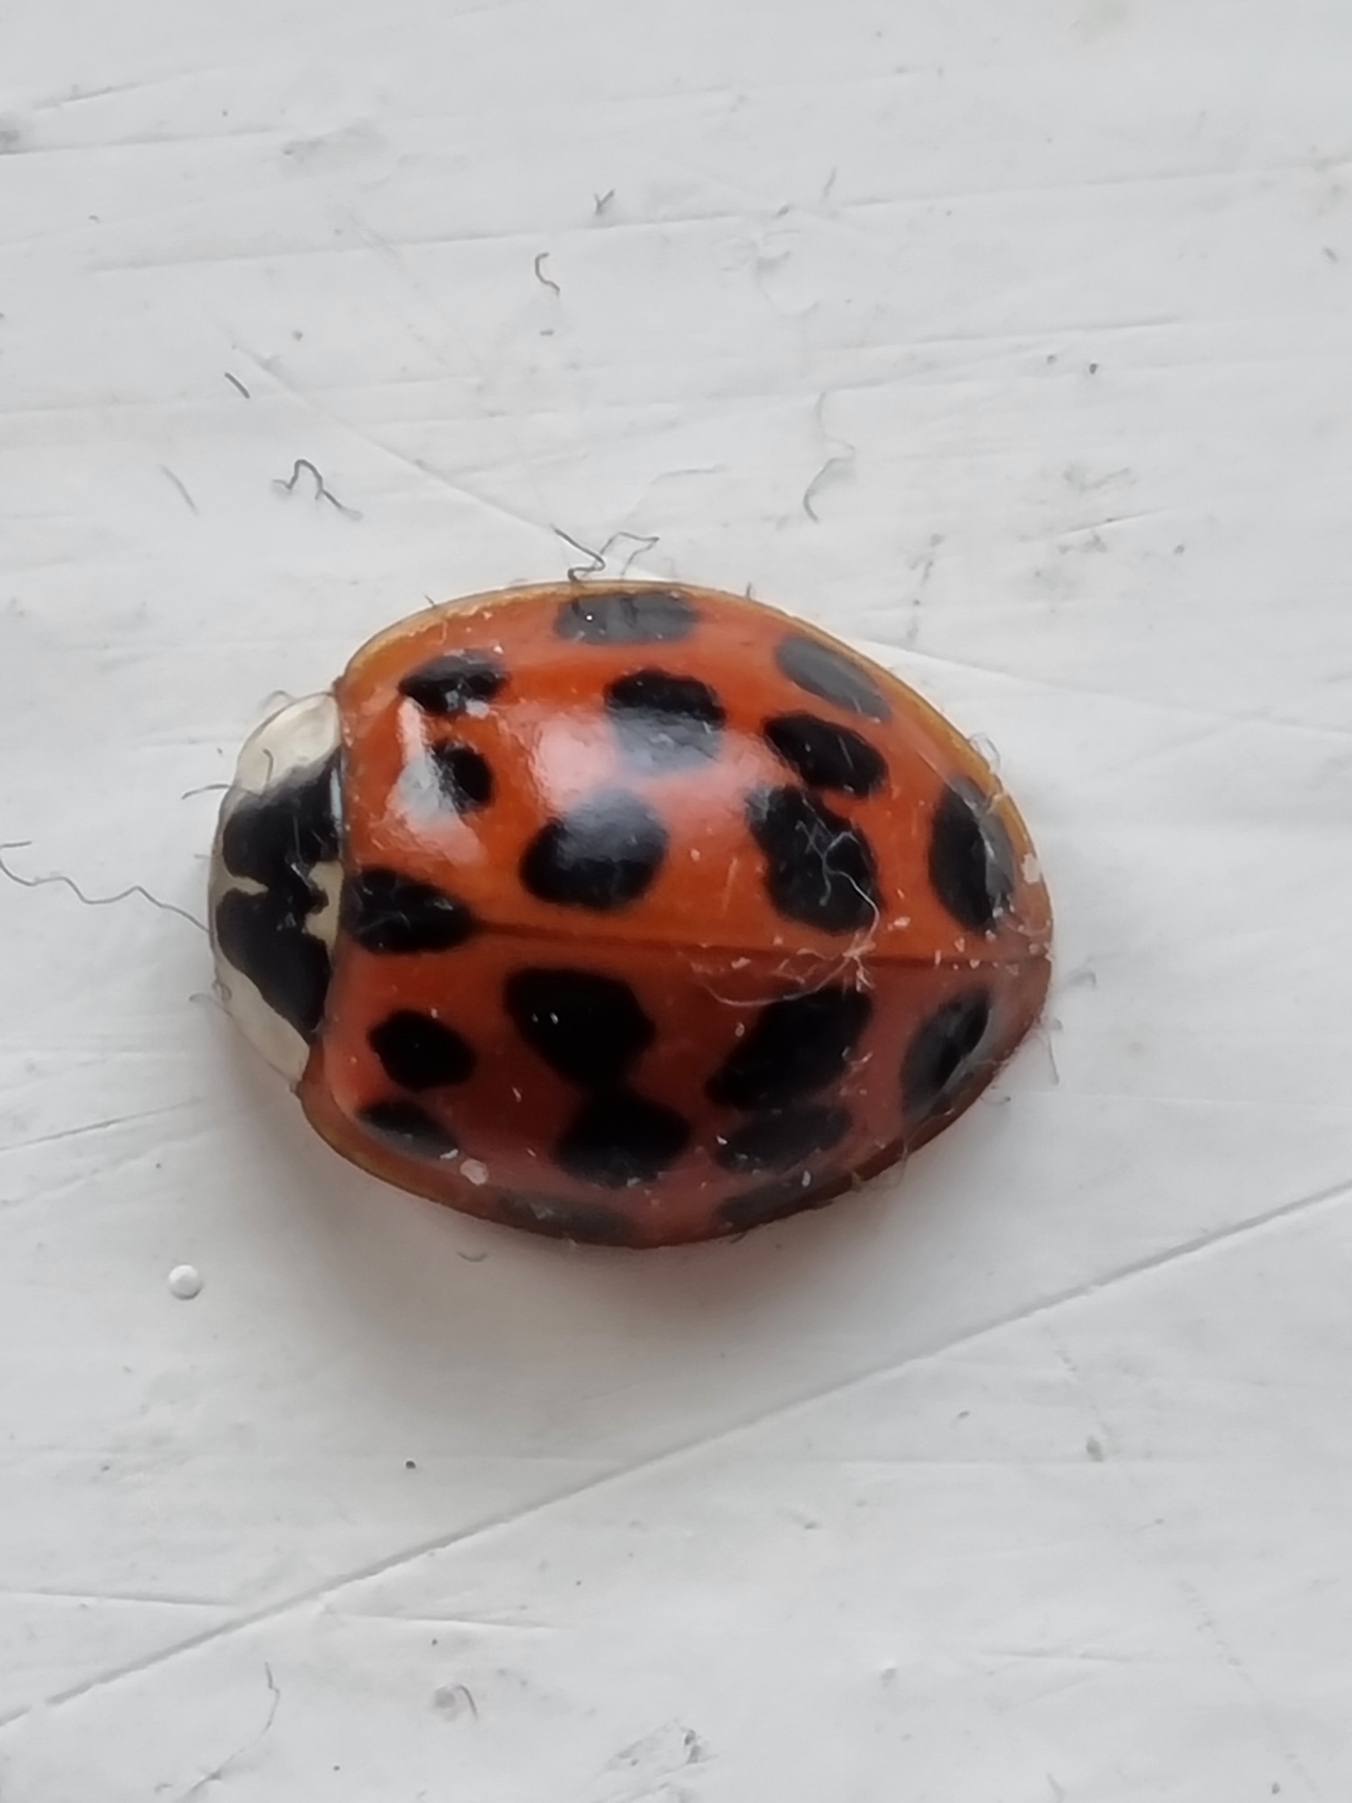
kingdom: Animalia
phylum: Arthropoda
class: Insecta
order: Coleoptera
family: Coccinellidae
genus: Harmonia
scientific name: Harmonia axyridis
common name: Harlekinmariehøne
